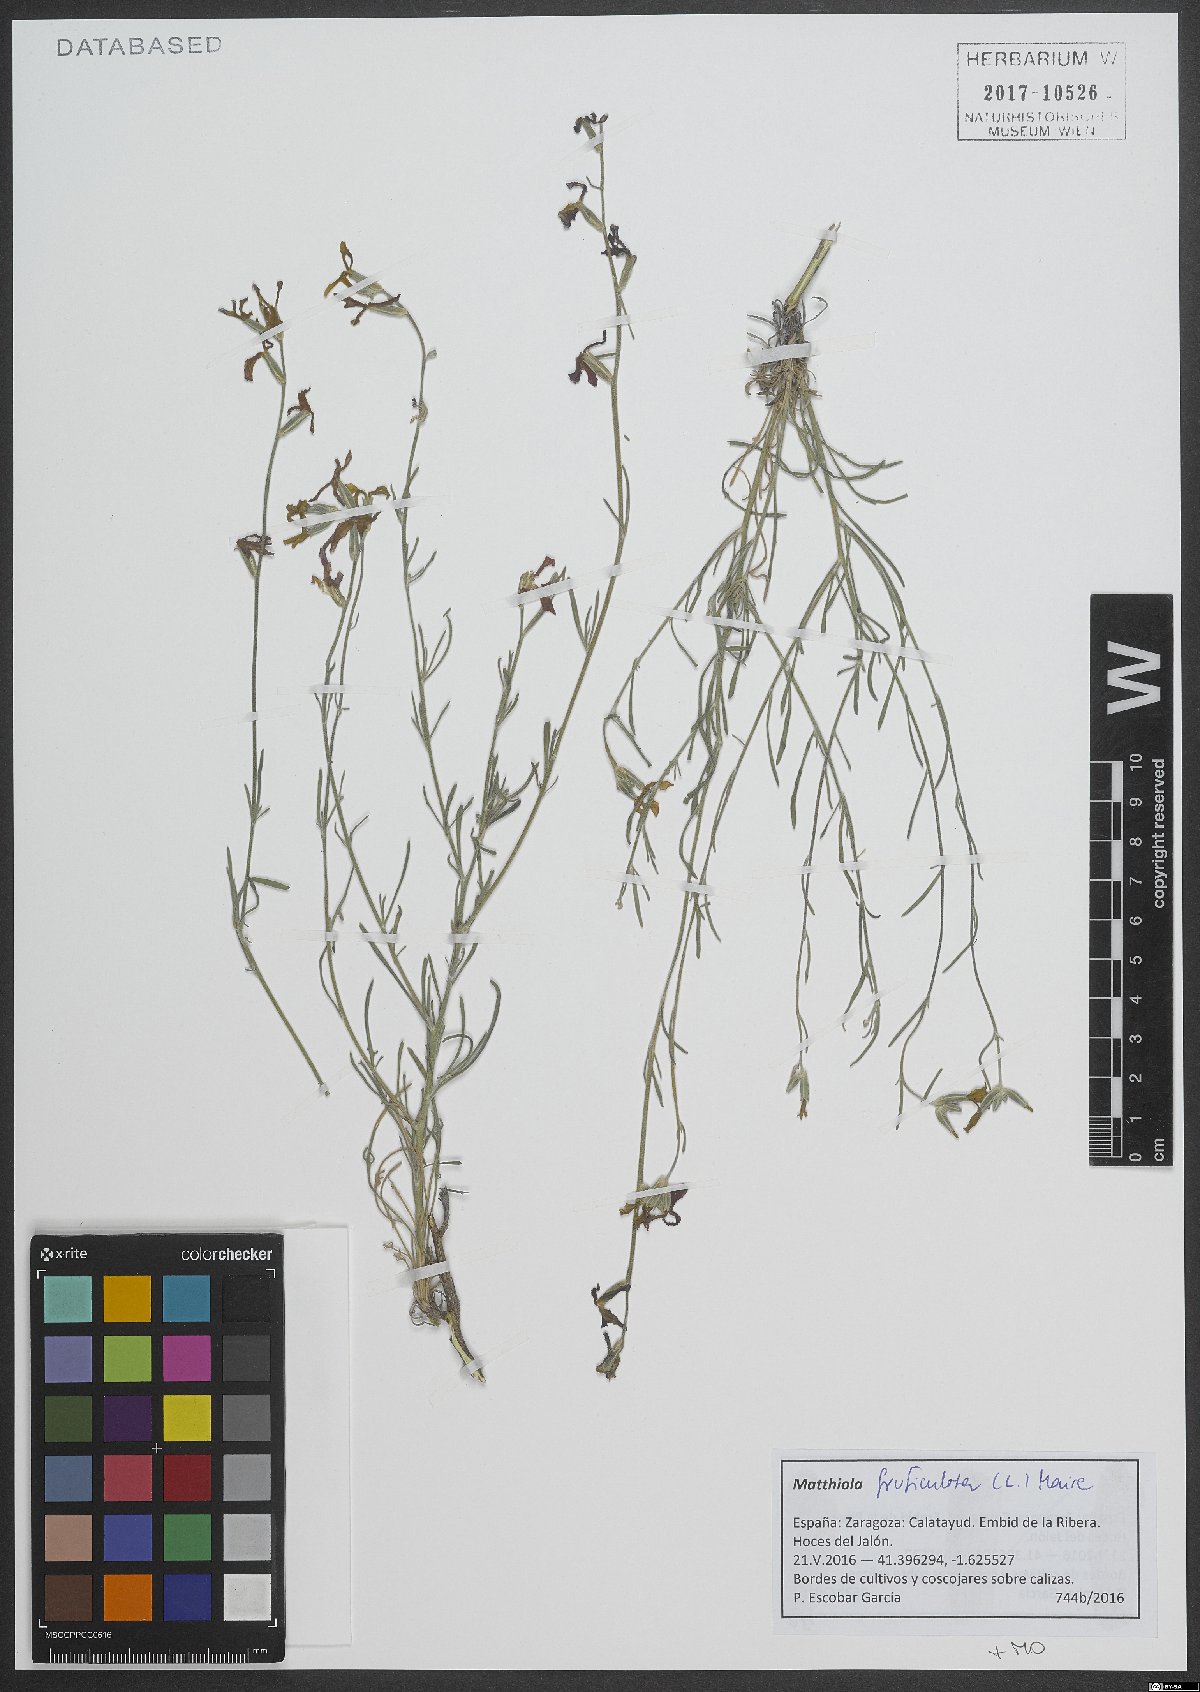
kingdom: Plantae
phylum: Tracheophyta
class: Magnoliopsida
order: Brassicales
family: Brassicaceae
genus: Matthiola
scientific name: Matthiola fruticulosa
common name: Sad stock
